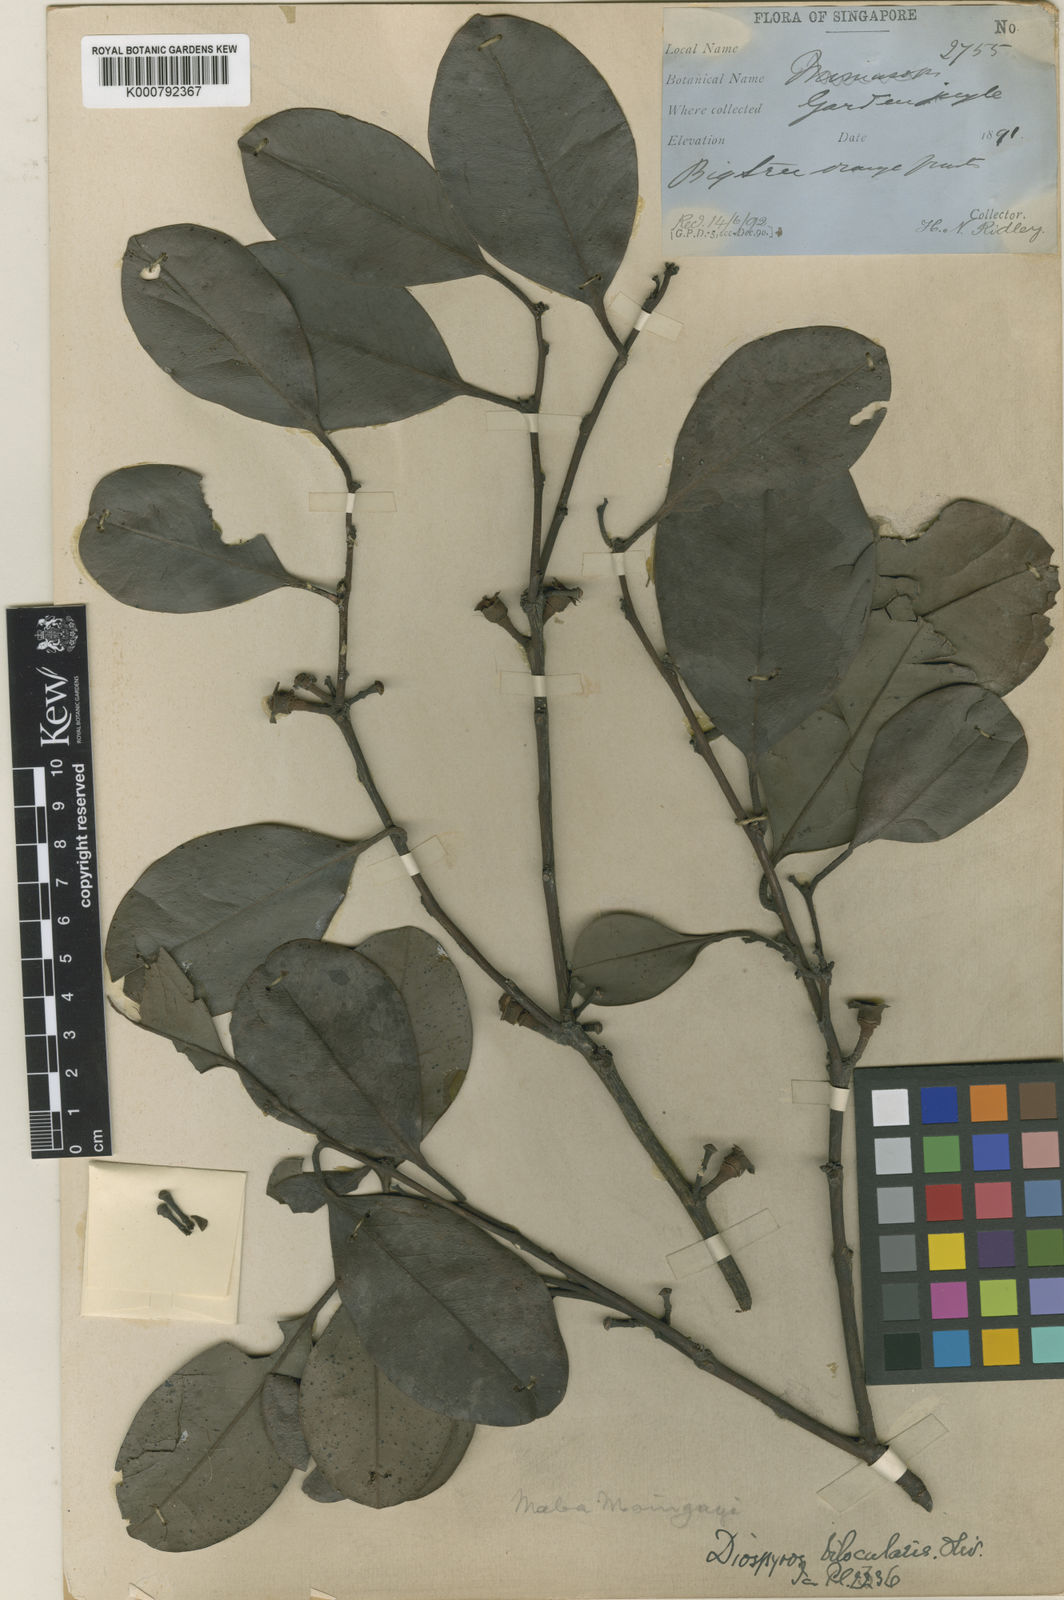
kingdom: Plantae
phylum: Tracheophyta
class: Magnoliopsida
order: Ericales
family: Ebenaceae
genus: Diospyros
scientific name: Diospyros maingayi
